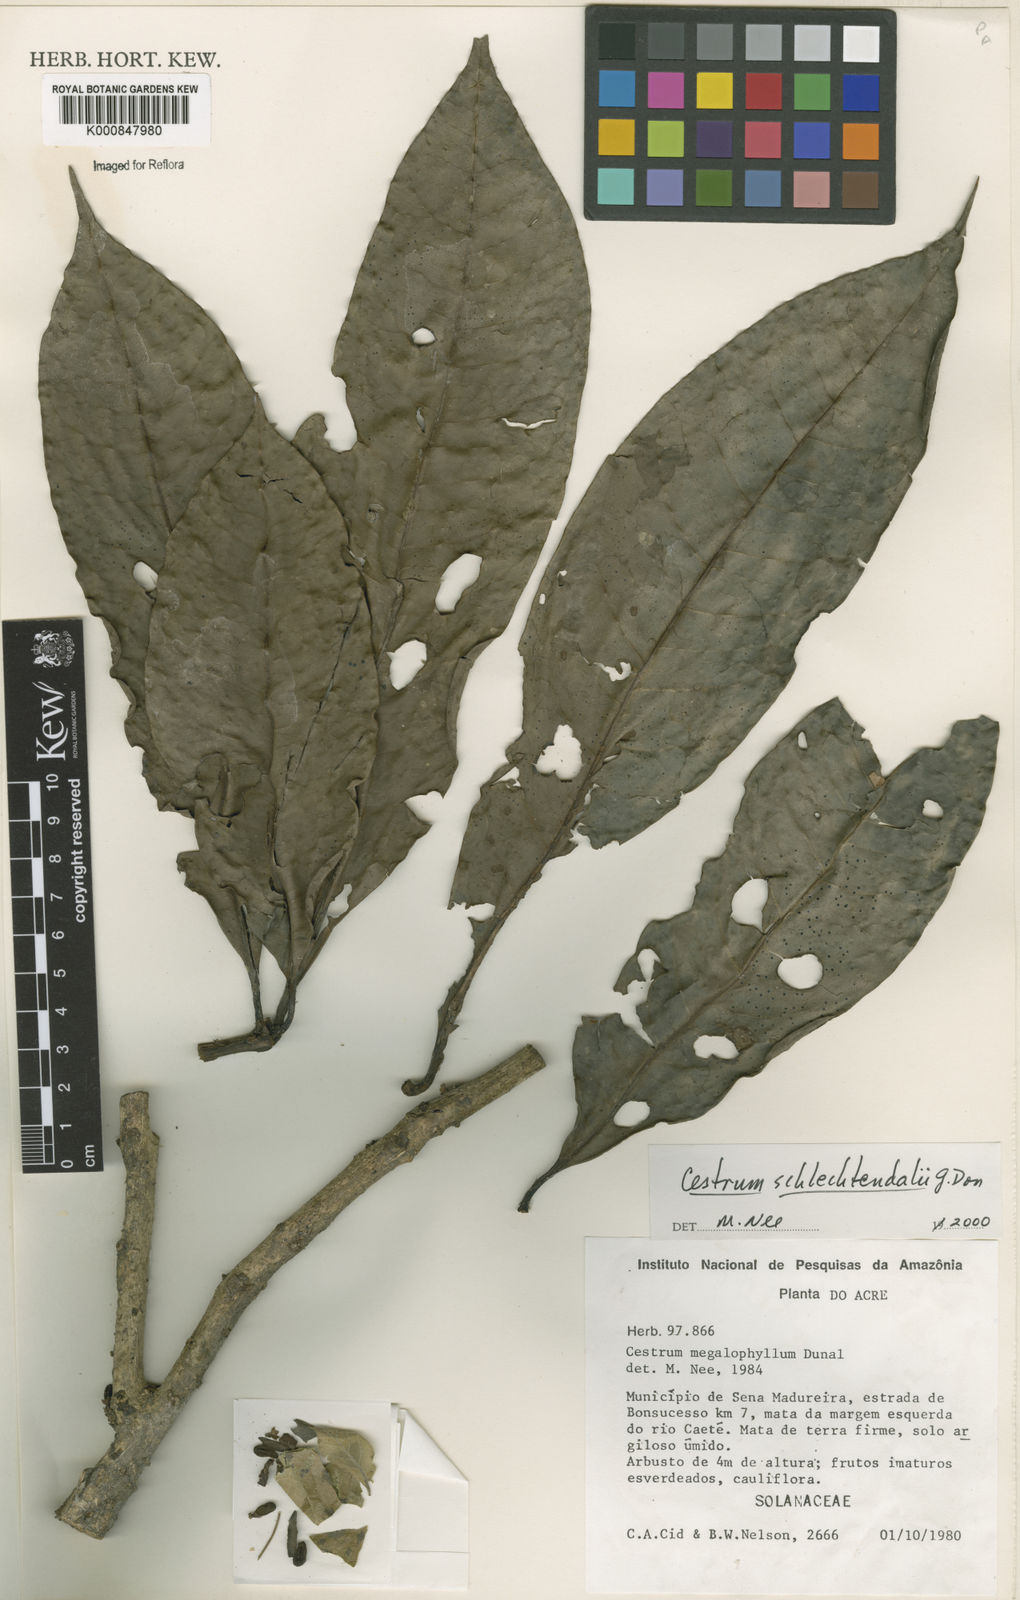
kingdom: Plantae
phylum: Tracheophyta
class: Magnoliopsida
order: Solanales
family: Solanaceae
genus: Cestrum
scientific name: Cestrum schlechtendalii
